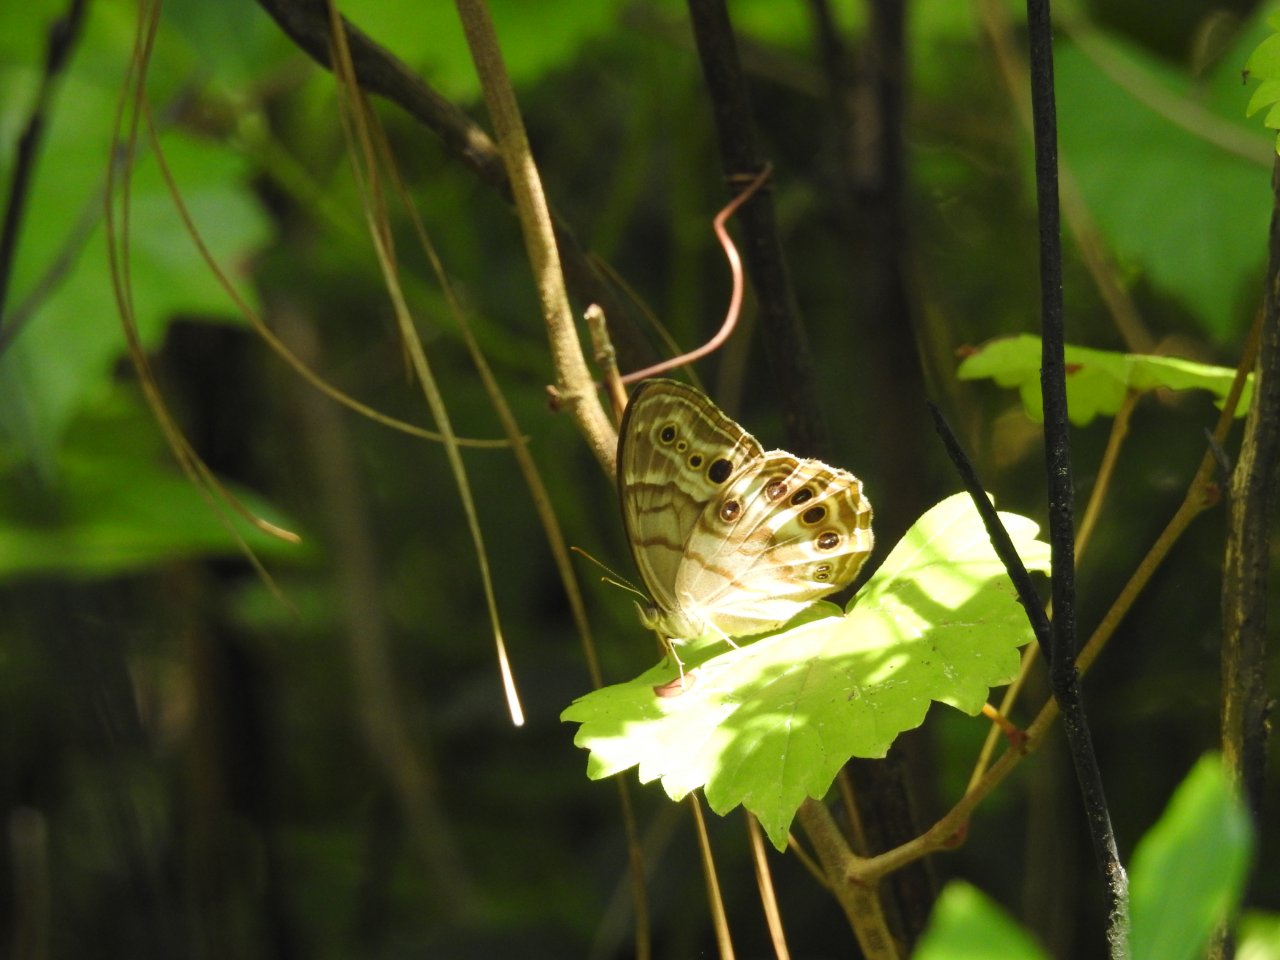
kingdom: Animalia
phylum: Arthropoda
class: Insecta
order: Lepidoptera
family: Nymphalidae
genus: Enodia
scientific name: Enodia portlandia
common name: Southern Pearly Eye
